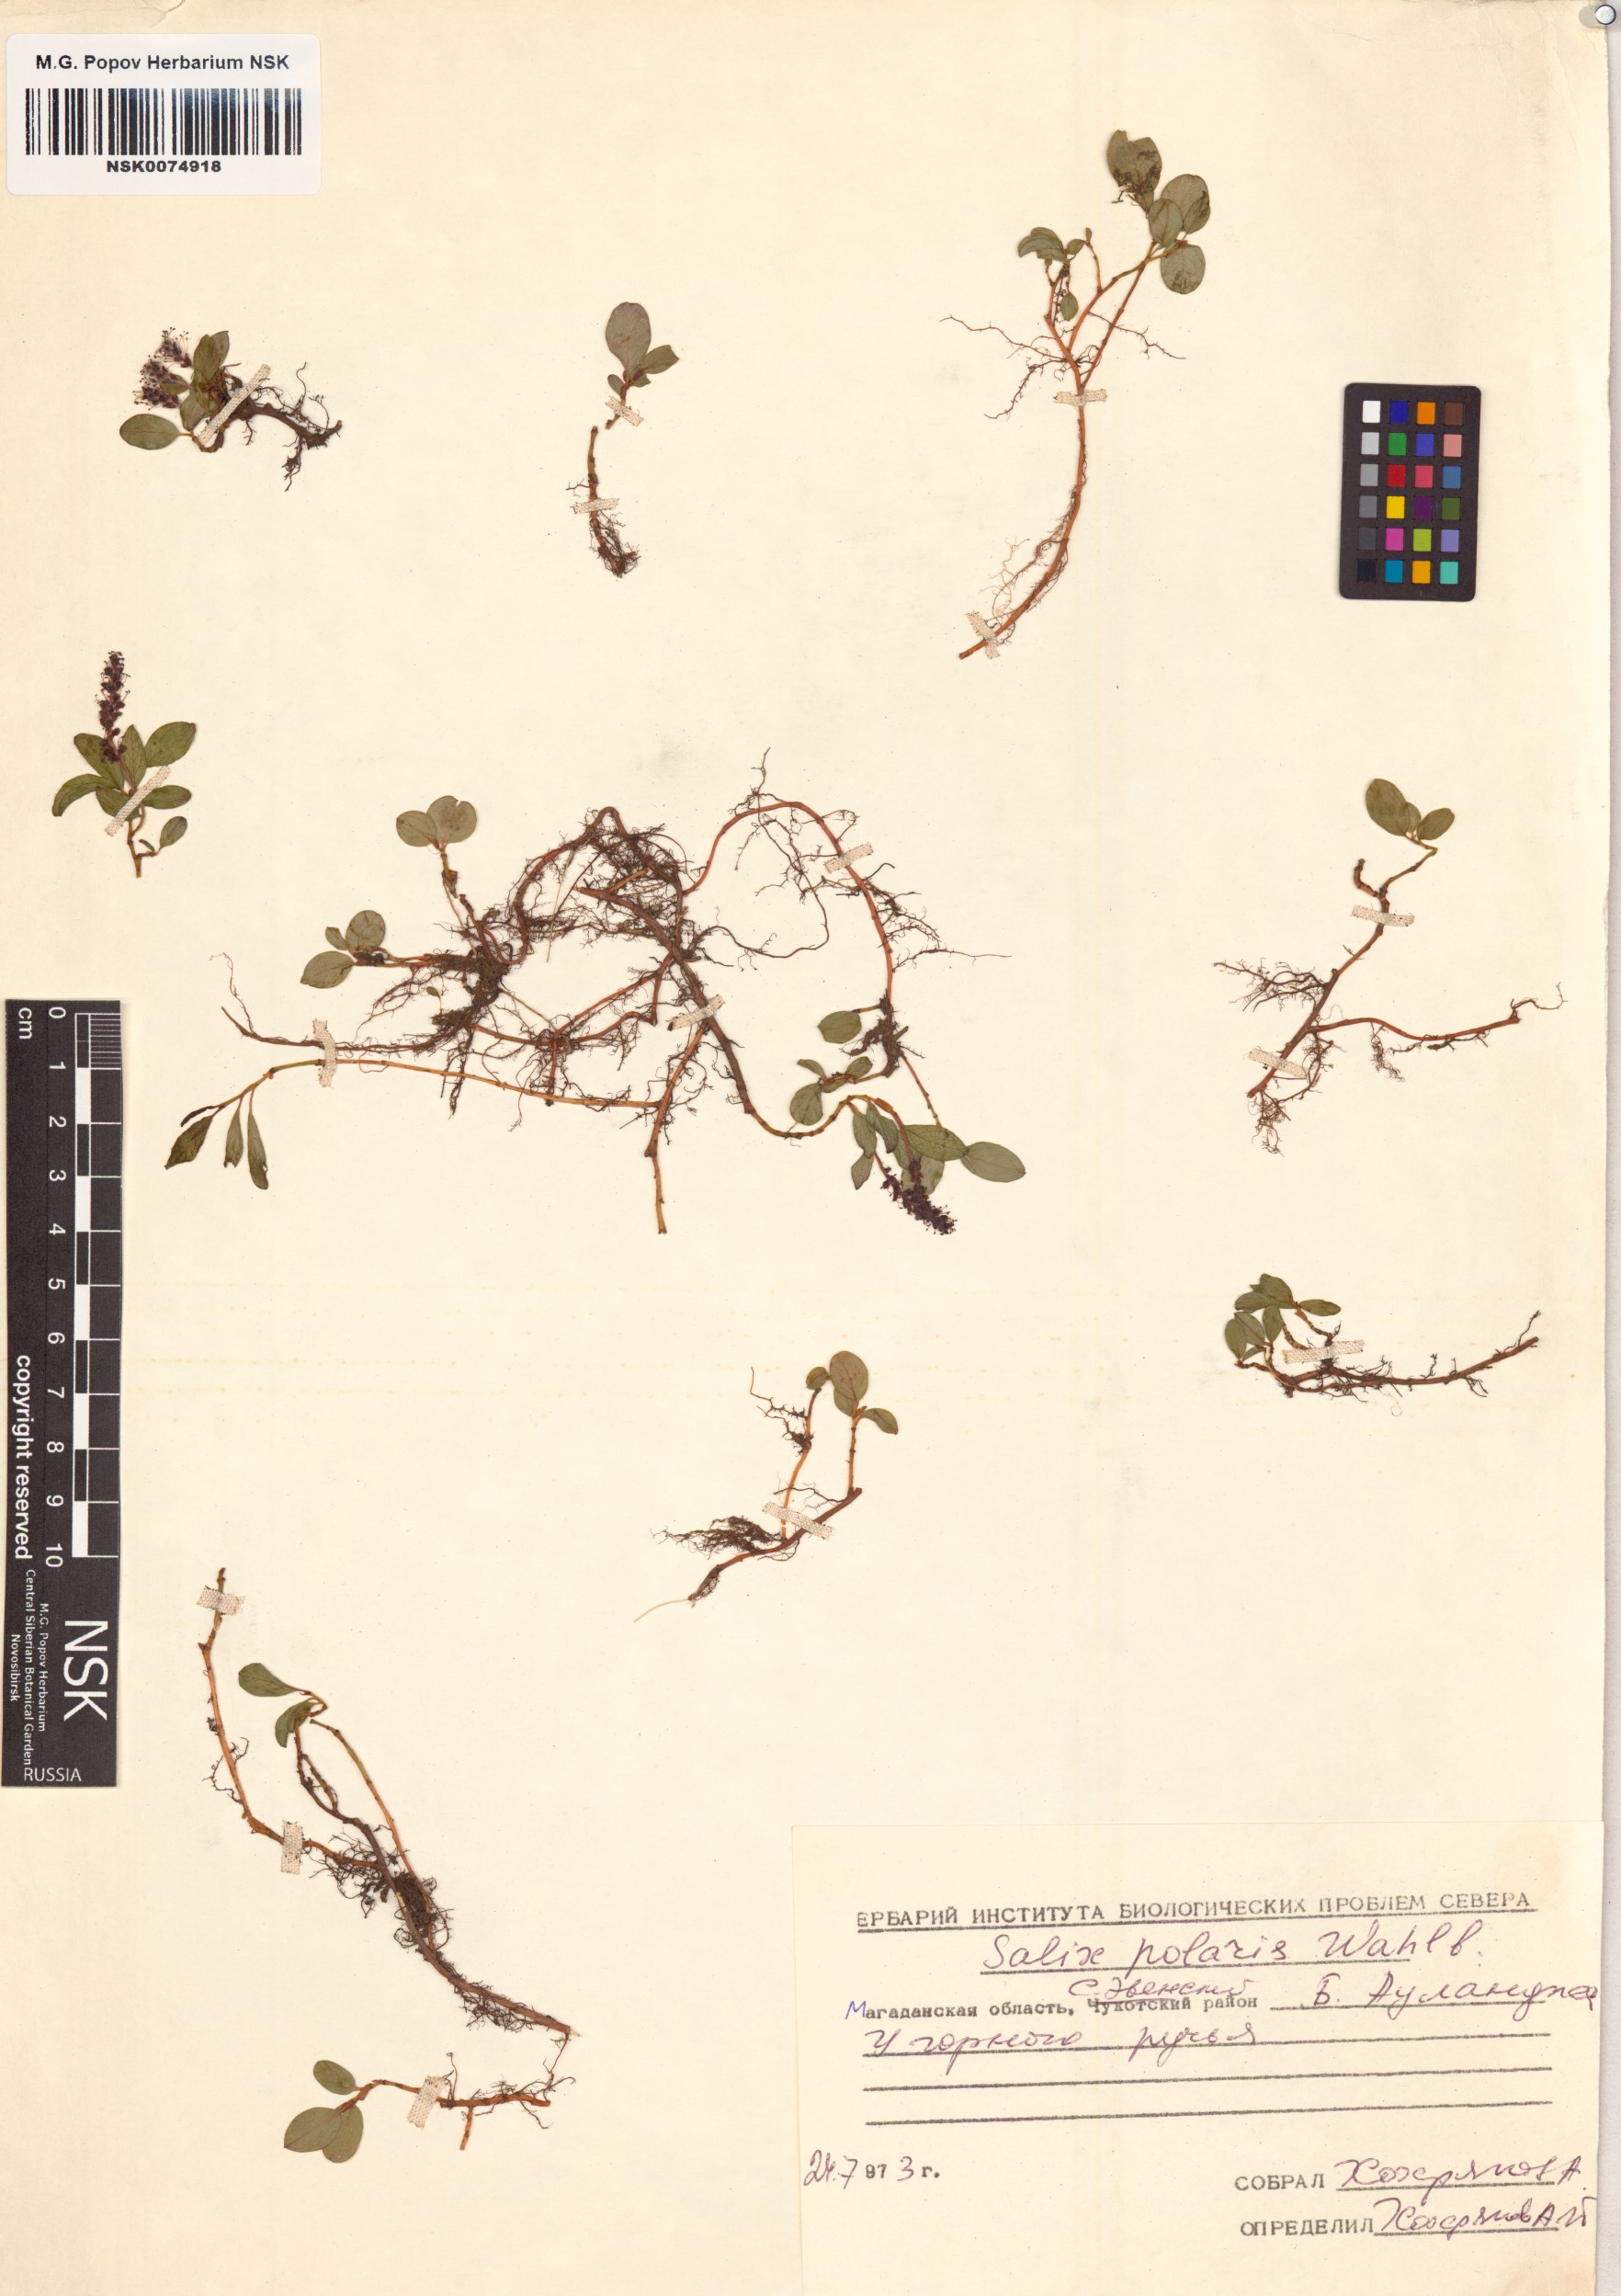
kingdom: Plantae
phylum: Tracheophyta
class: Magnoliopsida
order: Malpighiales
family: Salicaceae
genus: Salix
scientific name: Salix polaris
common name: Polar willow
